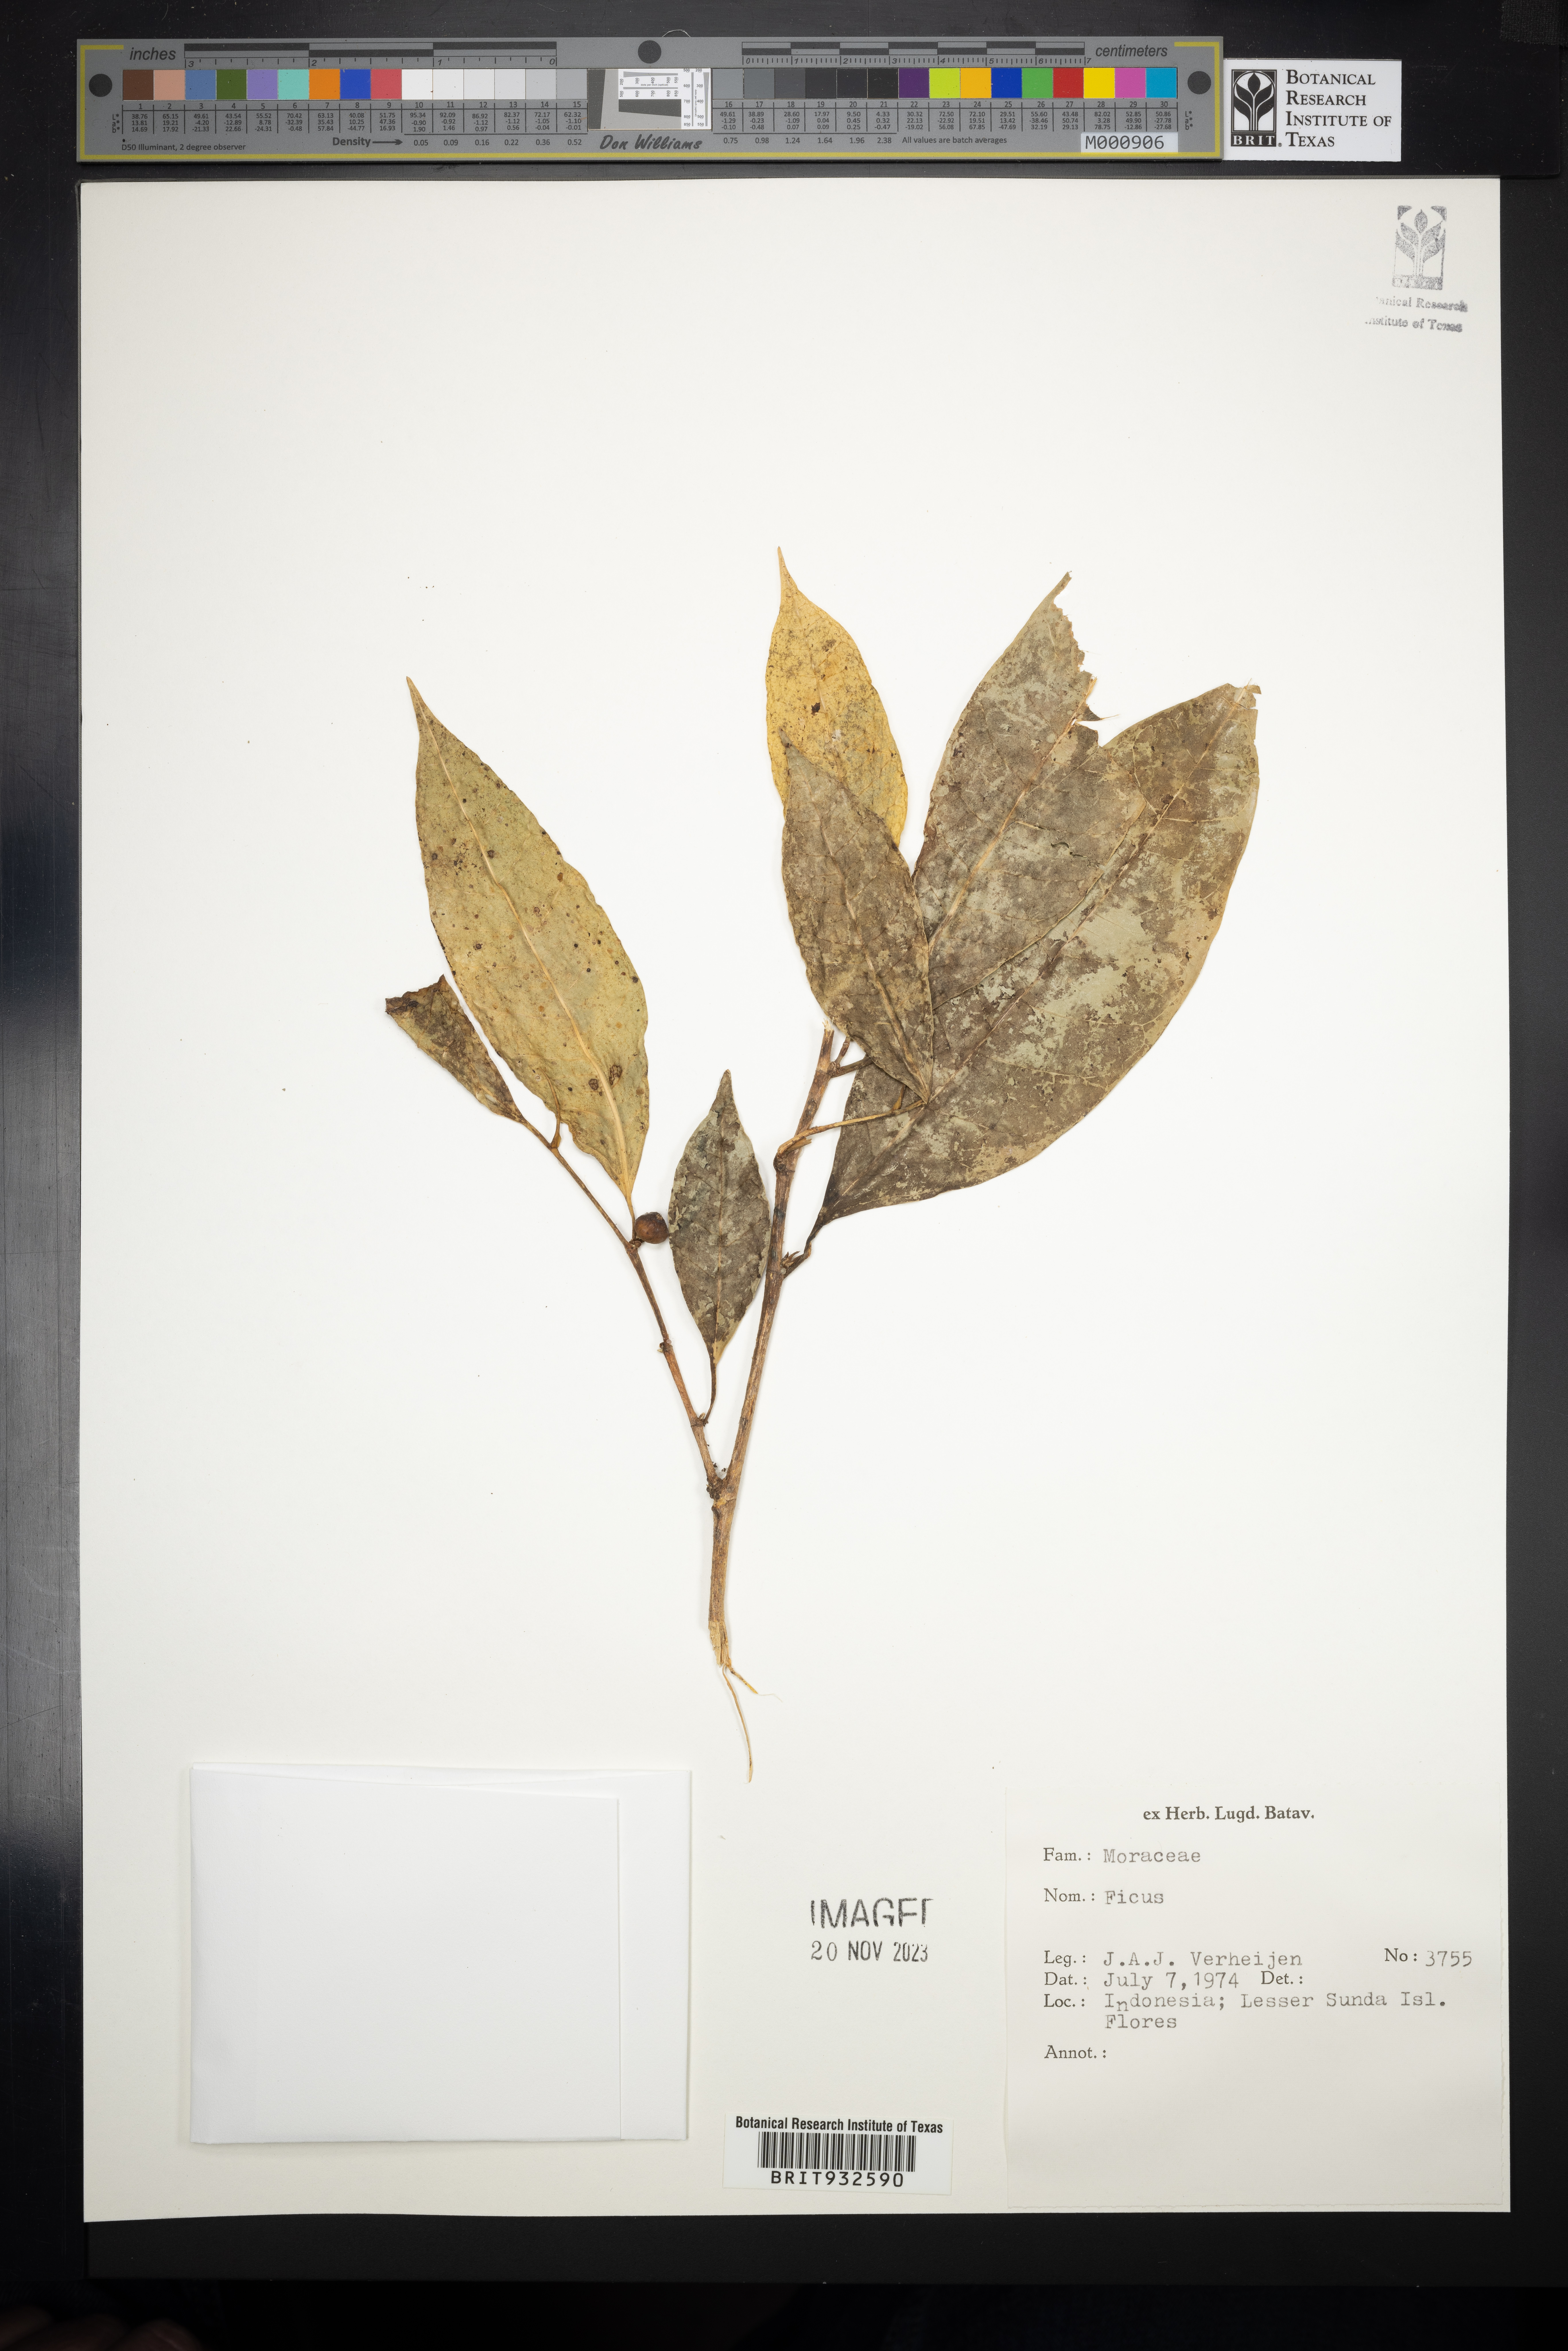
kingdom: Plantae
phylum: Tracheophyta
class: Magnoliopsida
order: Rosales
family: Moraceae
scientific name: Moraceae
